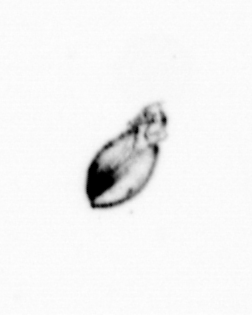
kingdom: Chromista
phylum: Ochrophyta
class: Bacillariophyceae
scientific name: Bacillariophyceae
